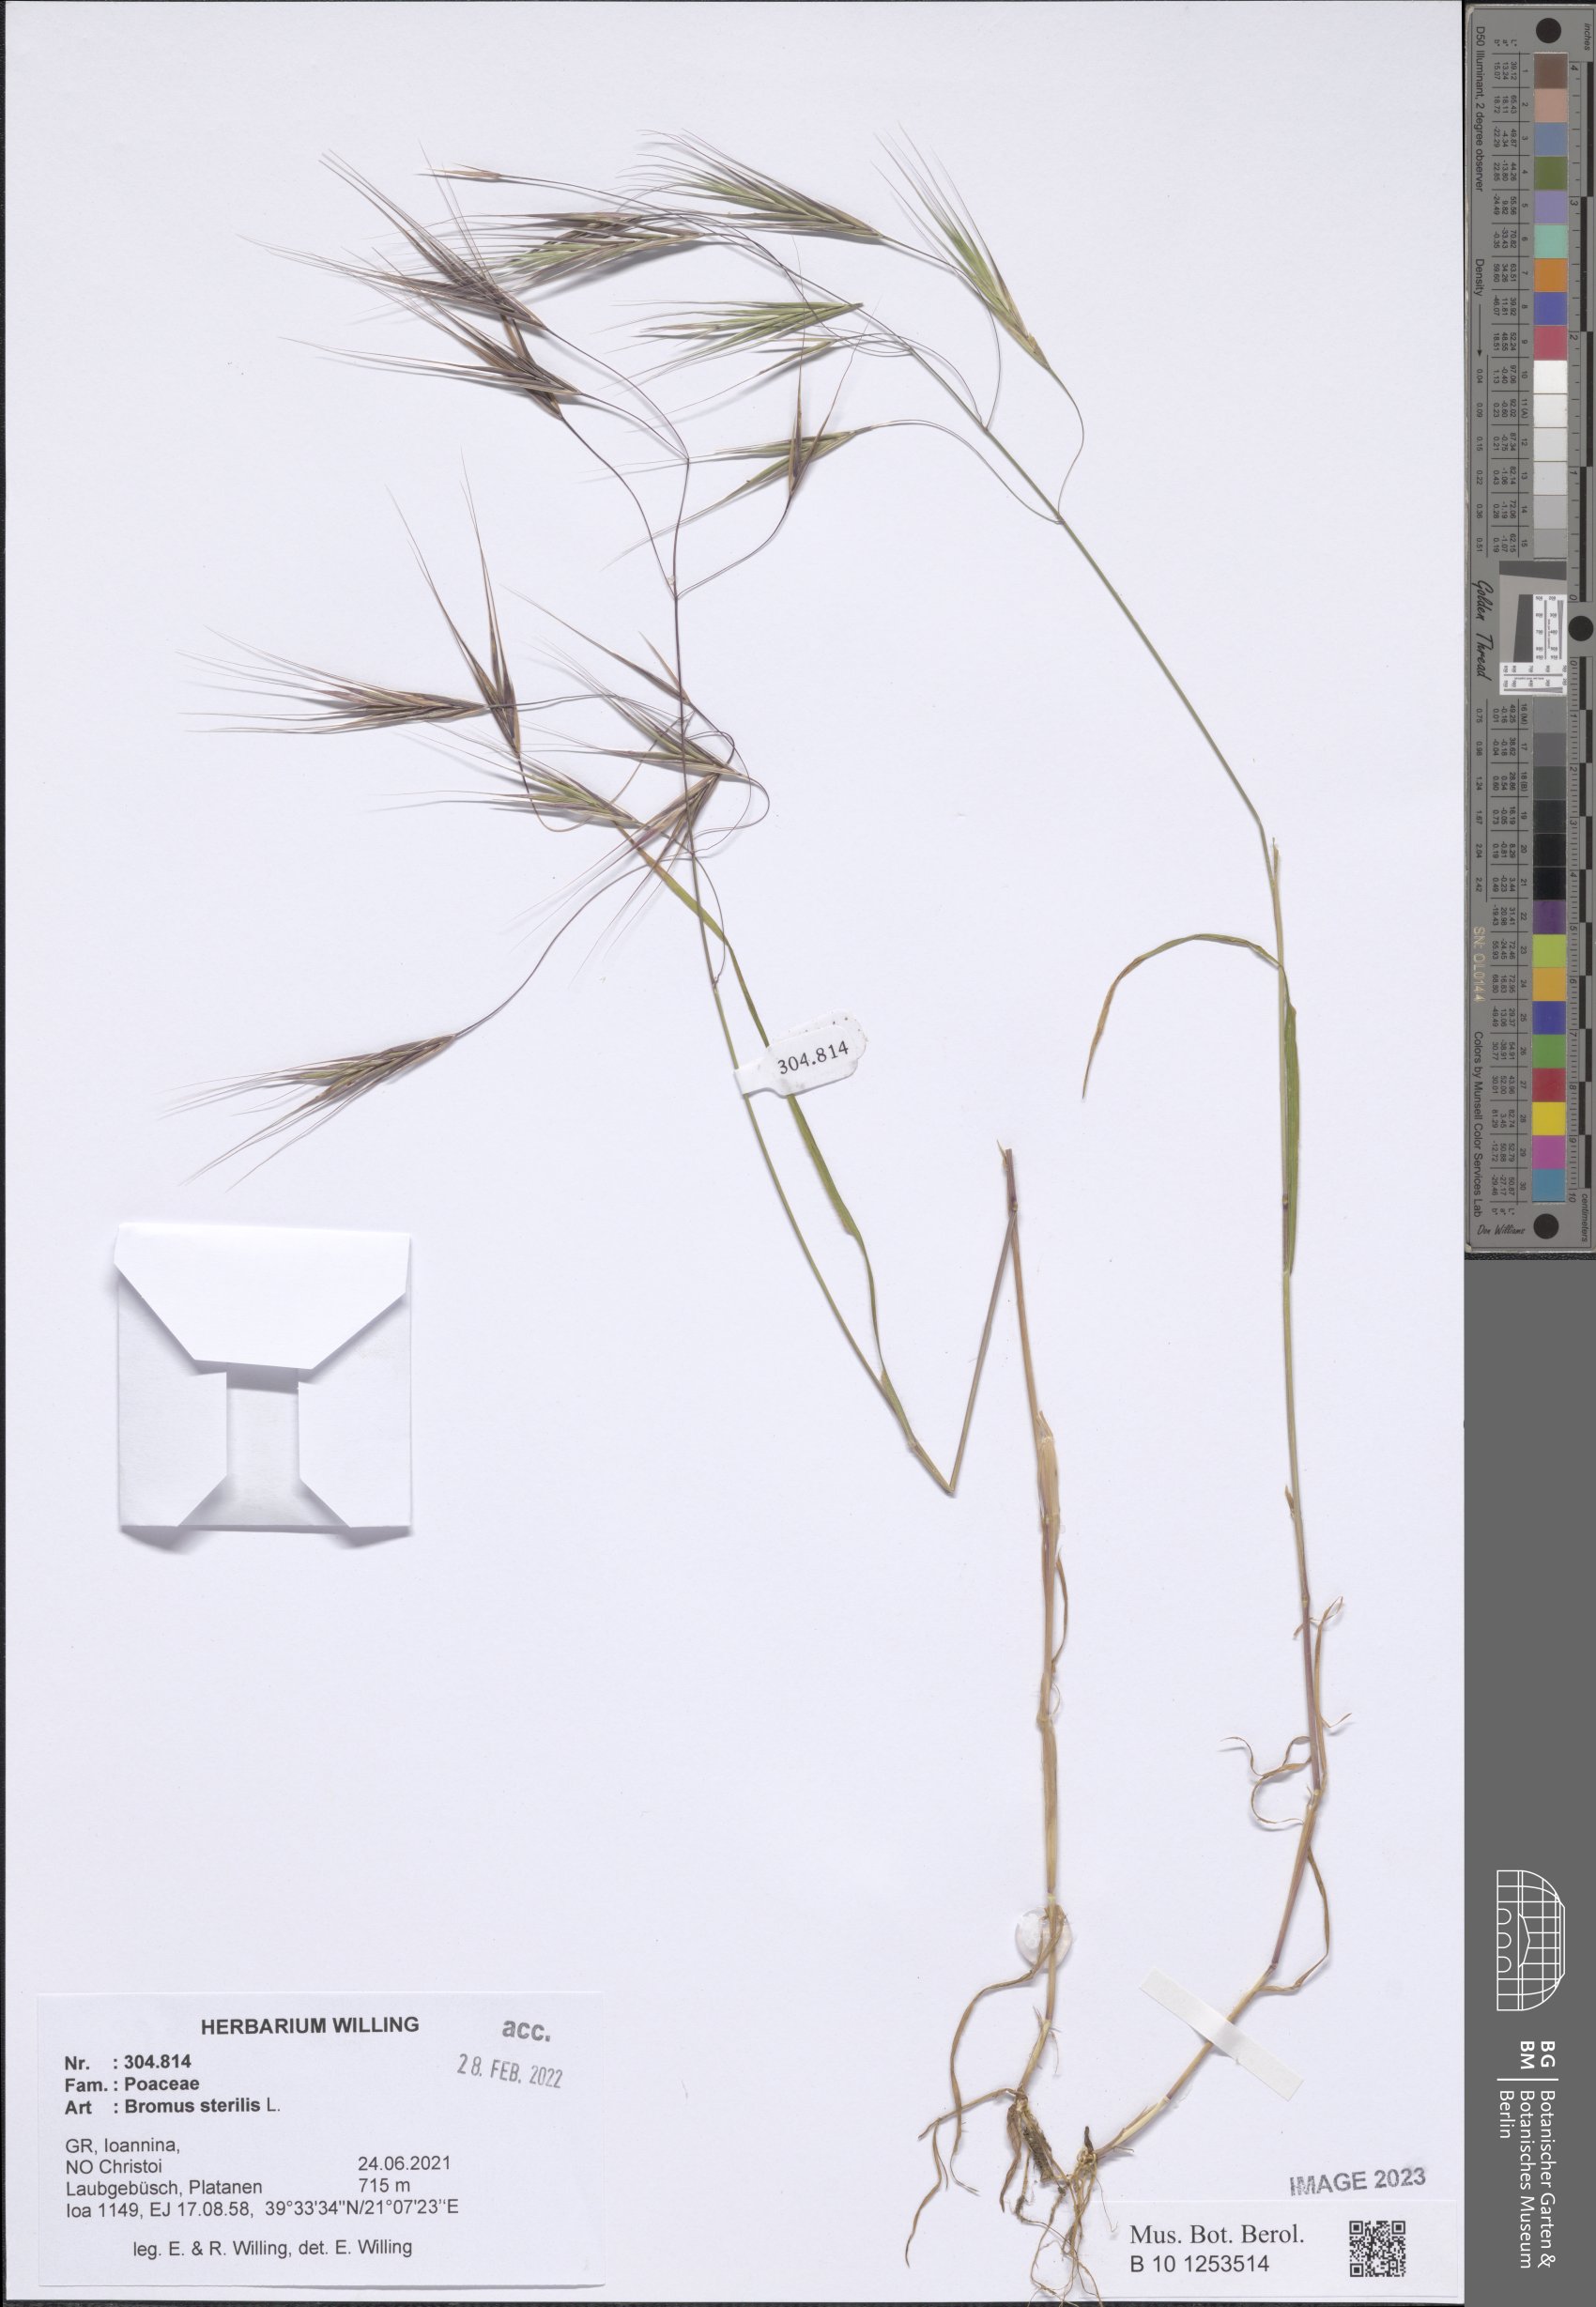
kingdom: Plantae
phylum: Tracheophyta
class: Liliopsida
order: Poales
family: Poaceae
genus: Bromus
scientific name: Bromus sterilis
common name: Poverty brome
